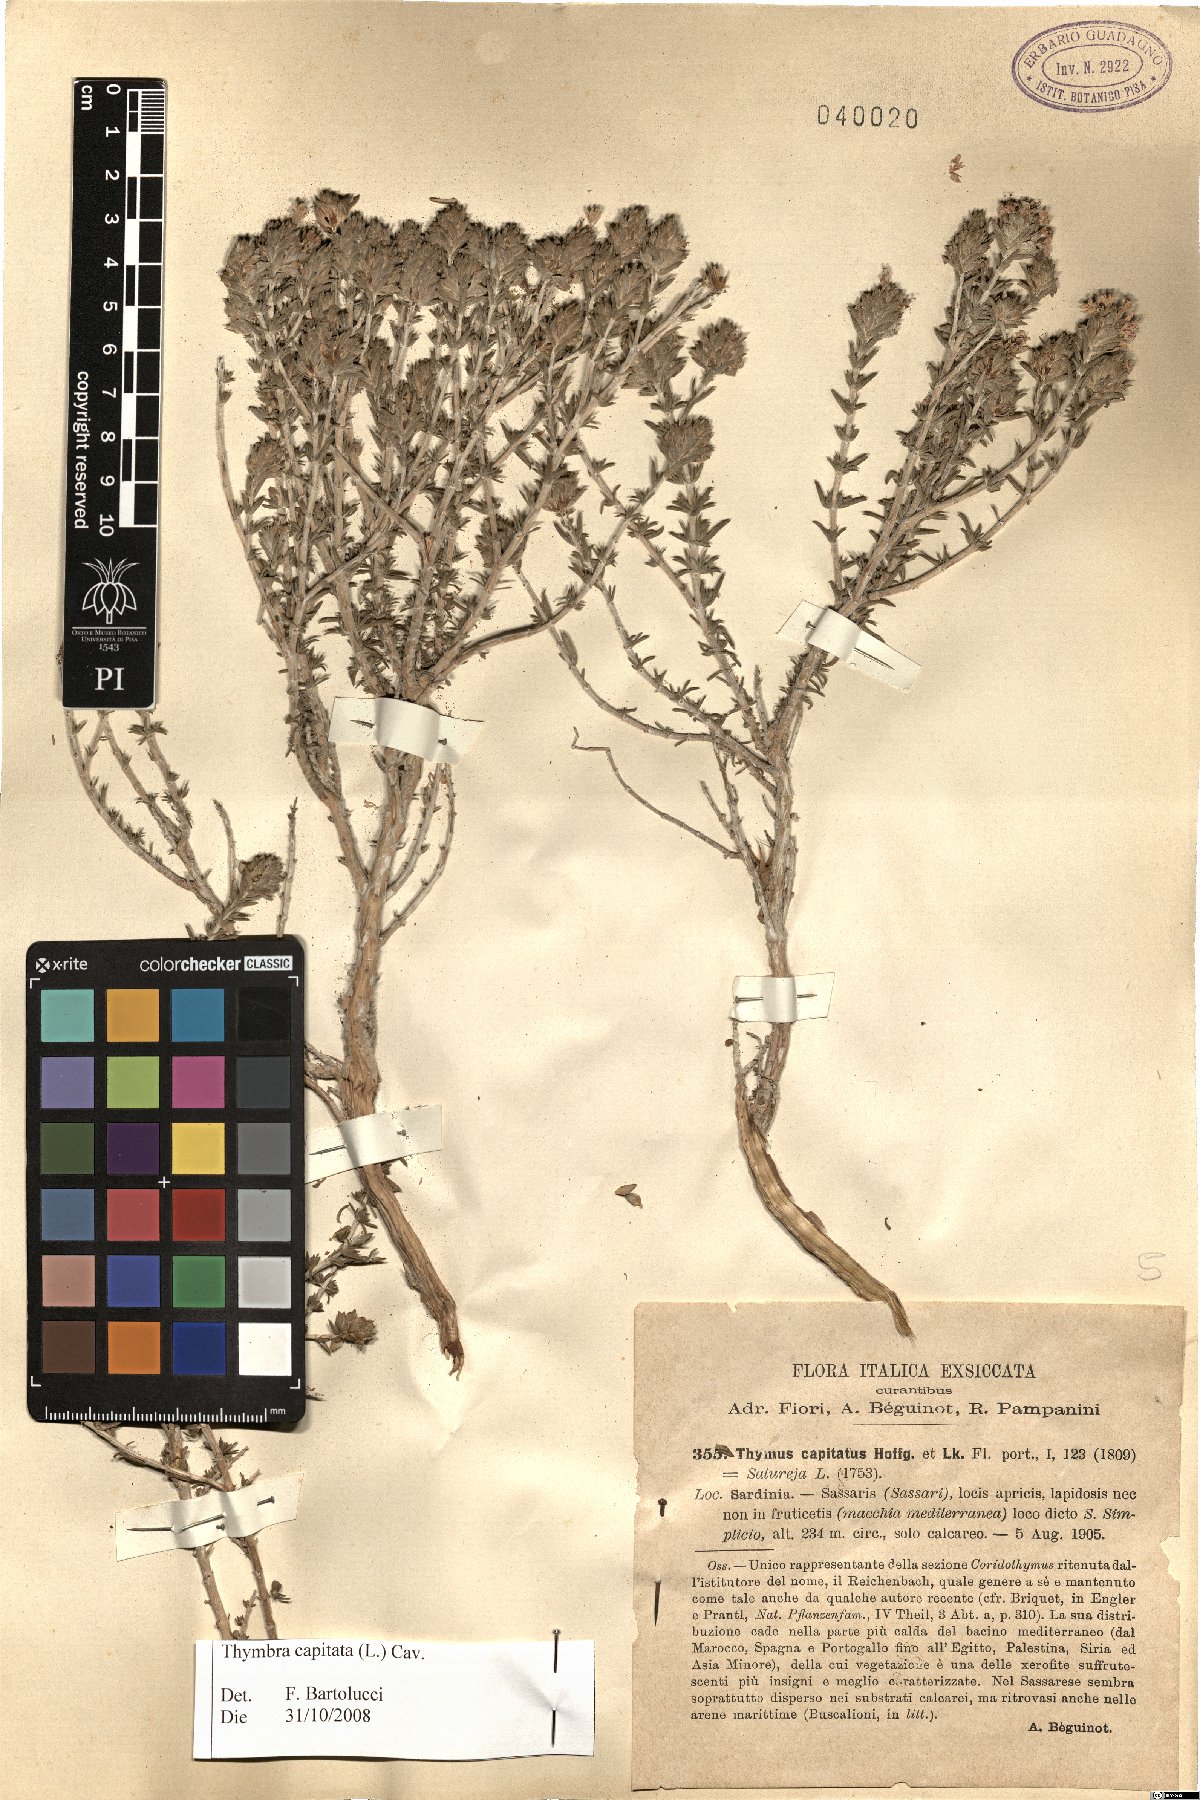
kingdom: Plantae
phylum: Tracheophyta
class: Magnoliopsida
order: Lamiales
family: Lamiaceae
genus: Thymbra
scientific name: Thymbra capitata
